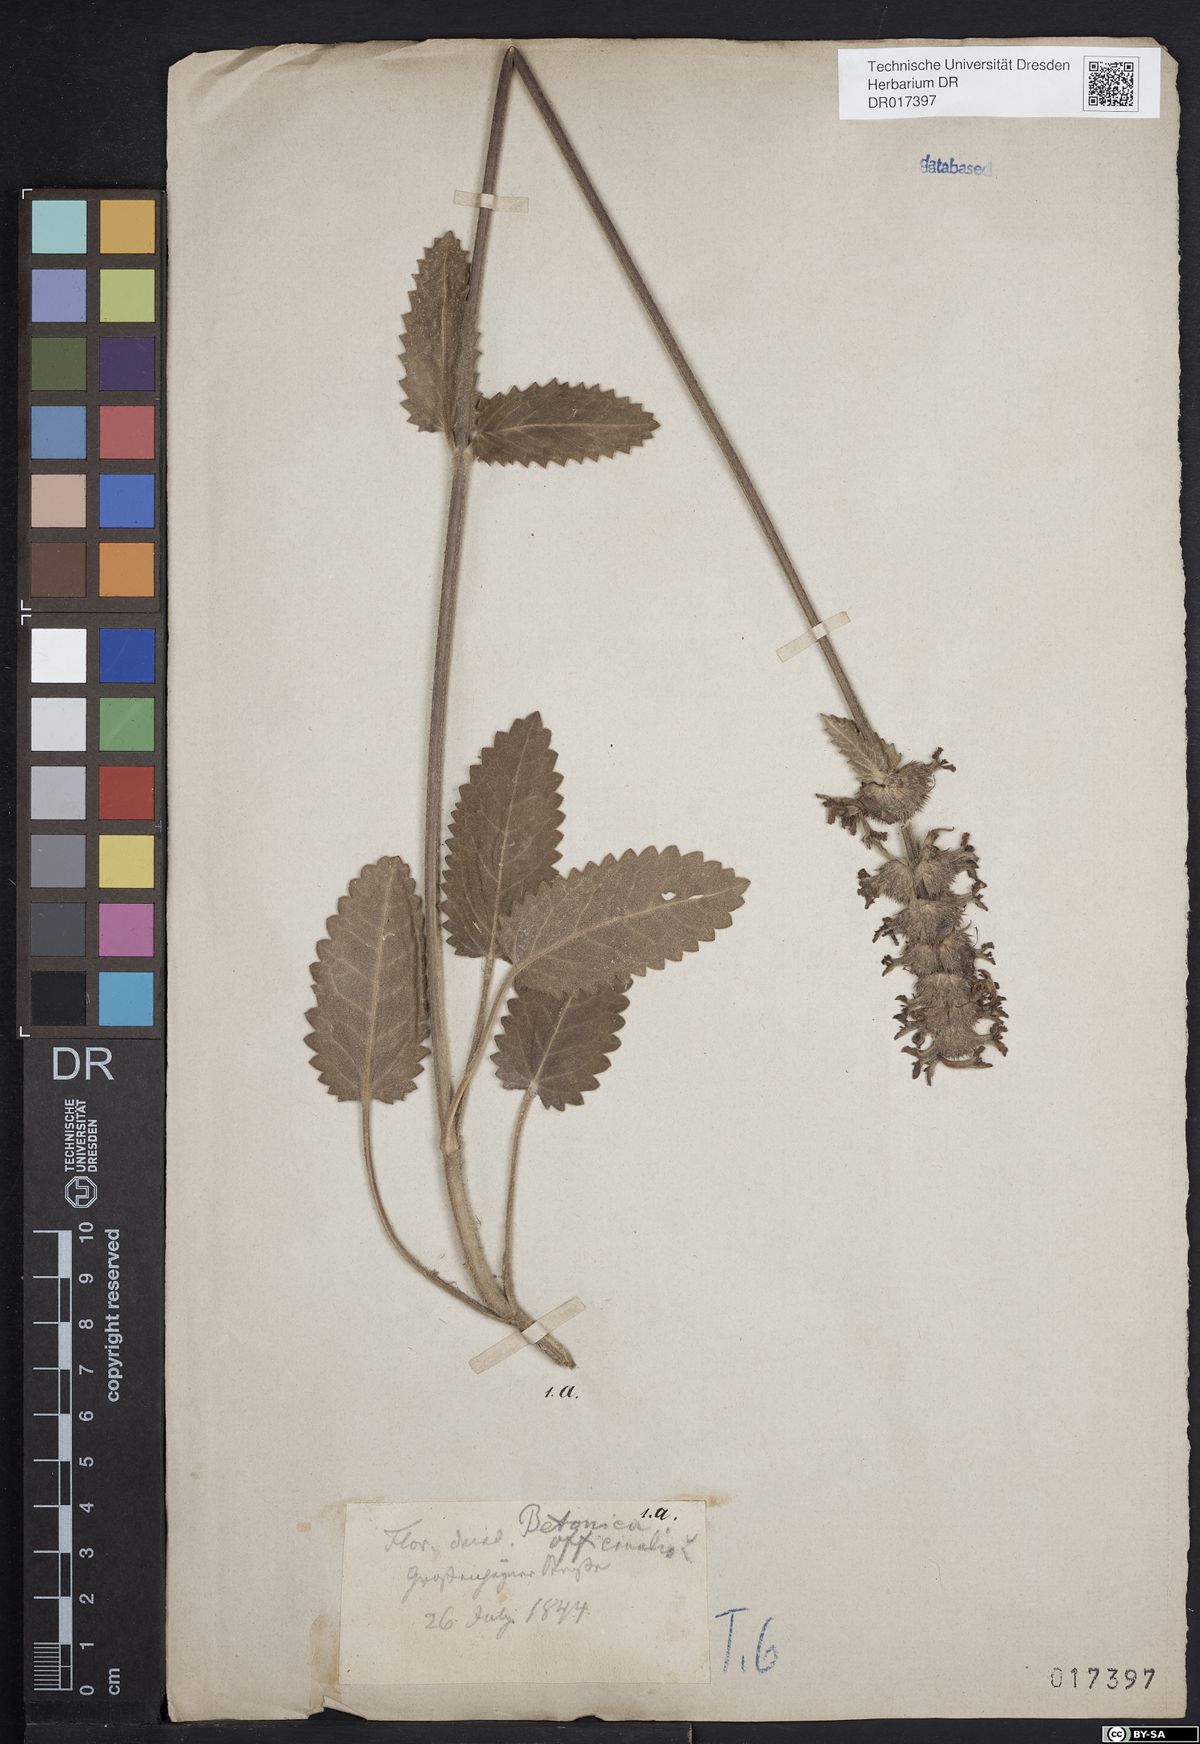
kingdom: Plantae
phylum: Tracheophyta
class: Magnoliopsida
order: Lamiales
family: Lamiaceae
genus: Betonica
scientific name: Betonica officinalis
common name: Bishop's-wort
